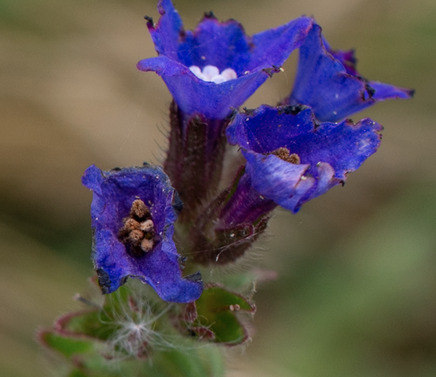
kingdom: Plantae
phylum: Tracheophyta
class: Magnoliopsida
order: Boraginales
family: Boraginaceae
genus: Anchusa
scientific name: Anchusa officinalis
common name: Læge-oksetunge
